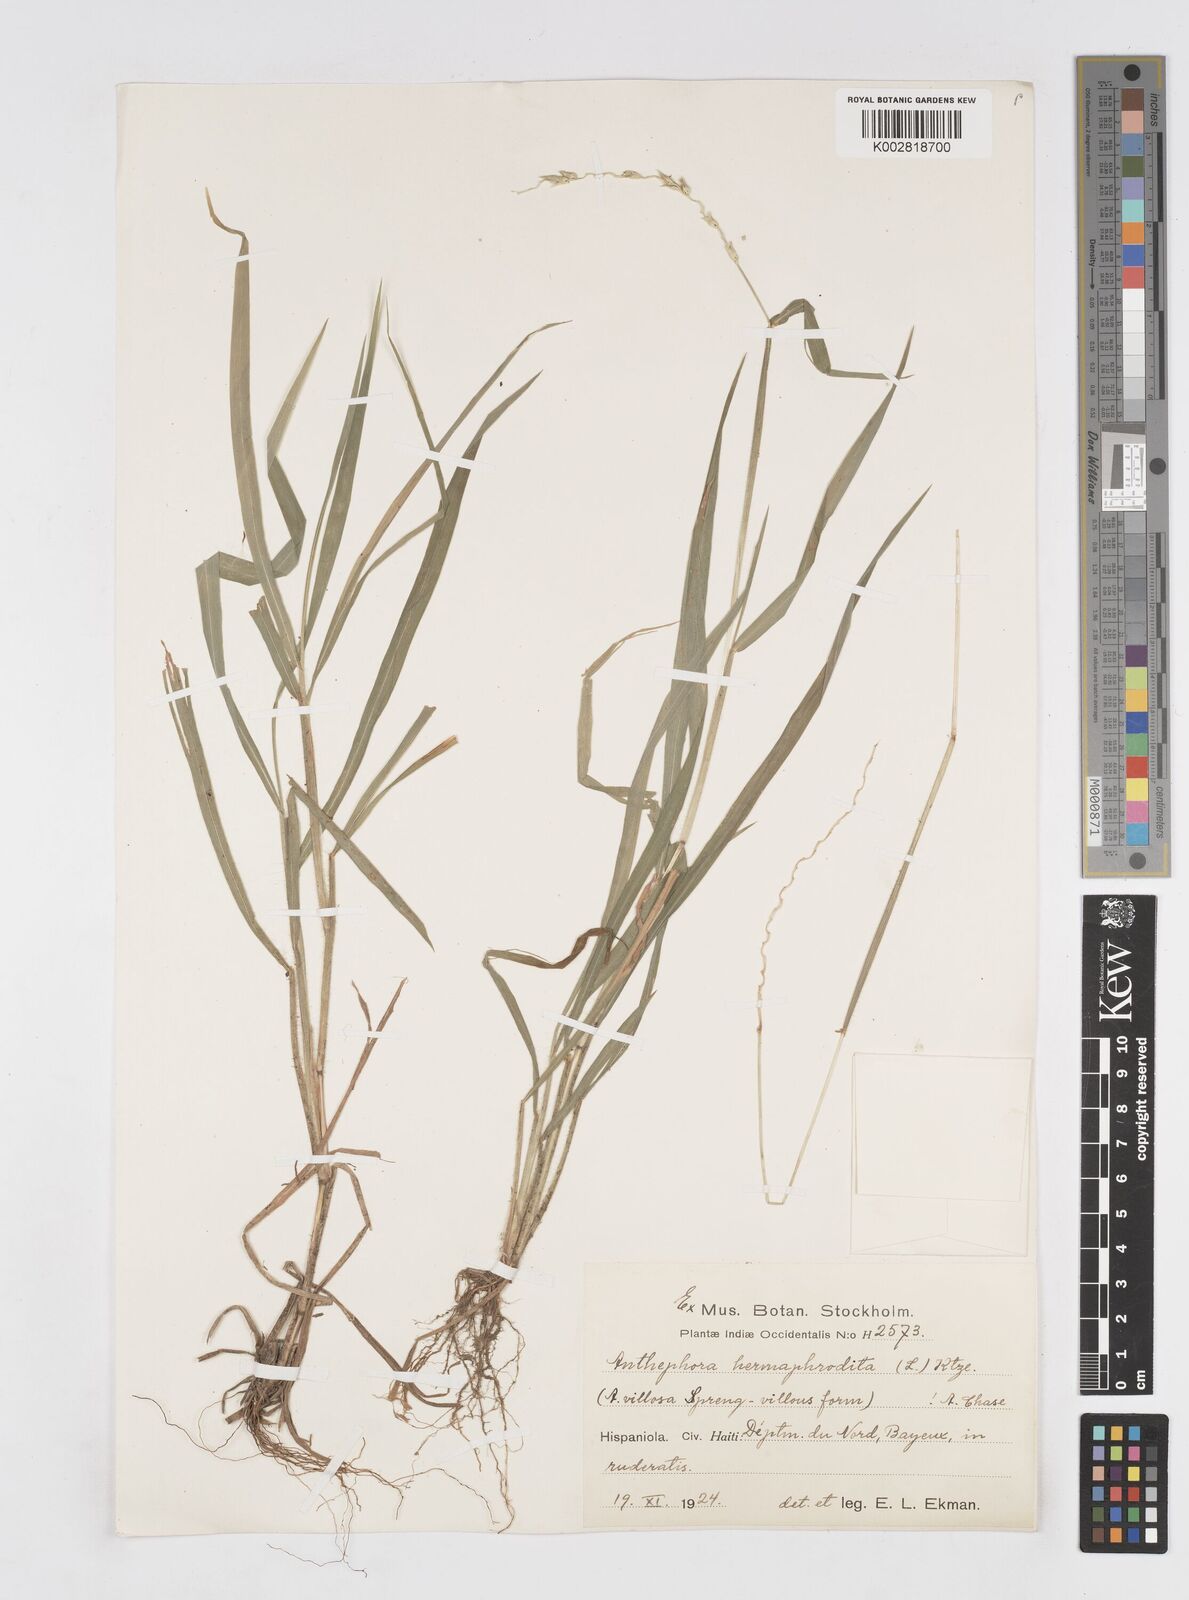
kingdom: Plantae
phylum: Tracheophyta
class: Liliopsida
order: Poales
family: Poaceae
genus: Anthephora
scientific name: Anthephora hermaphrodita
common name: Oldfield grass
